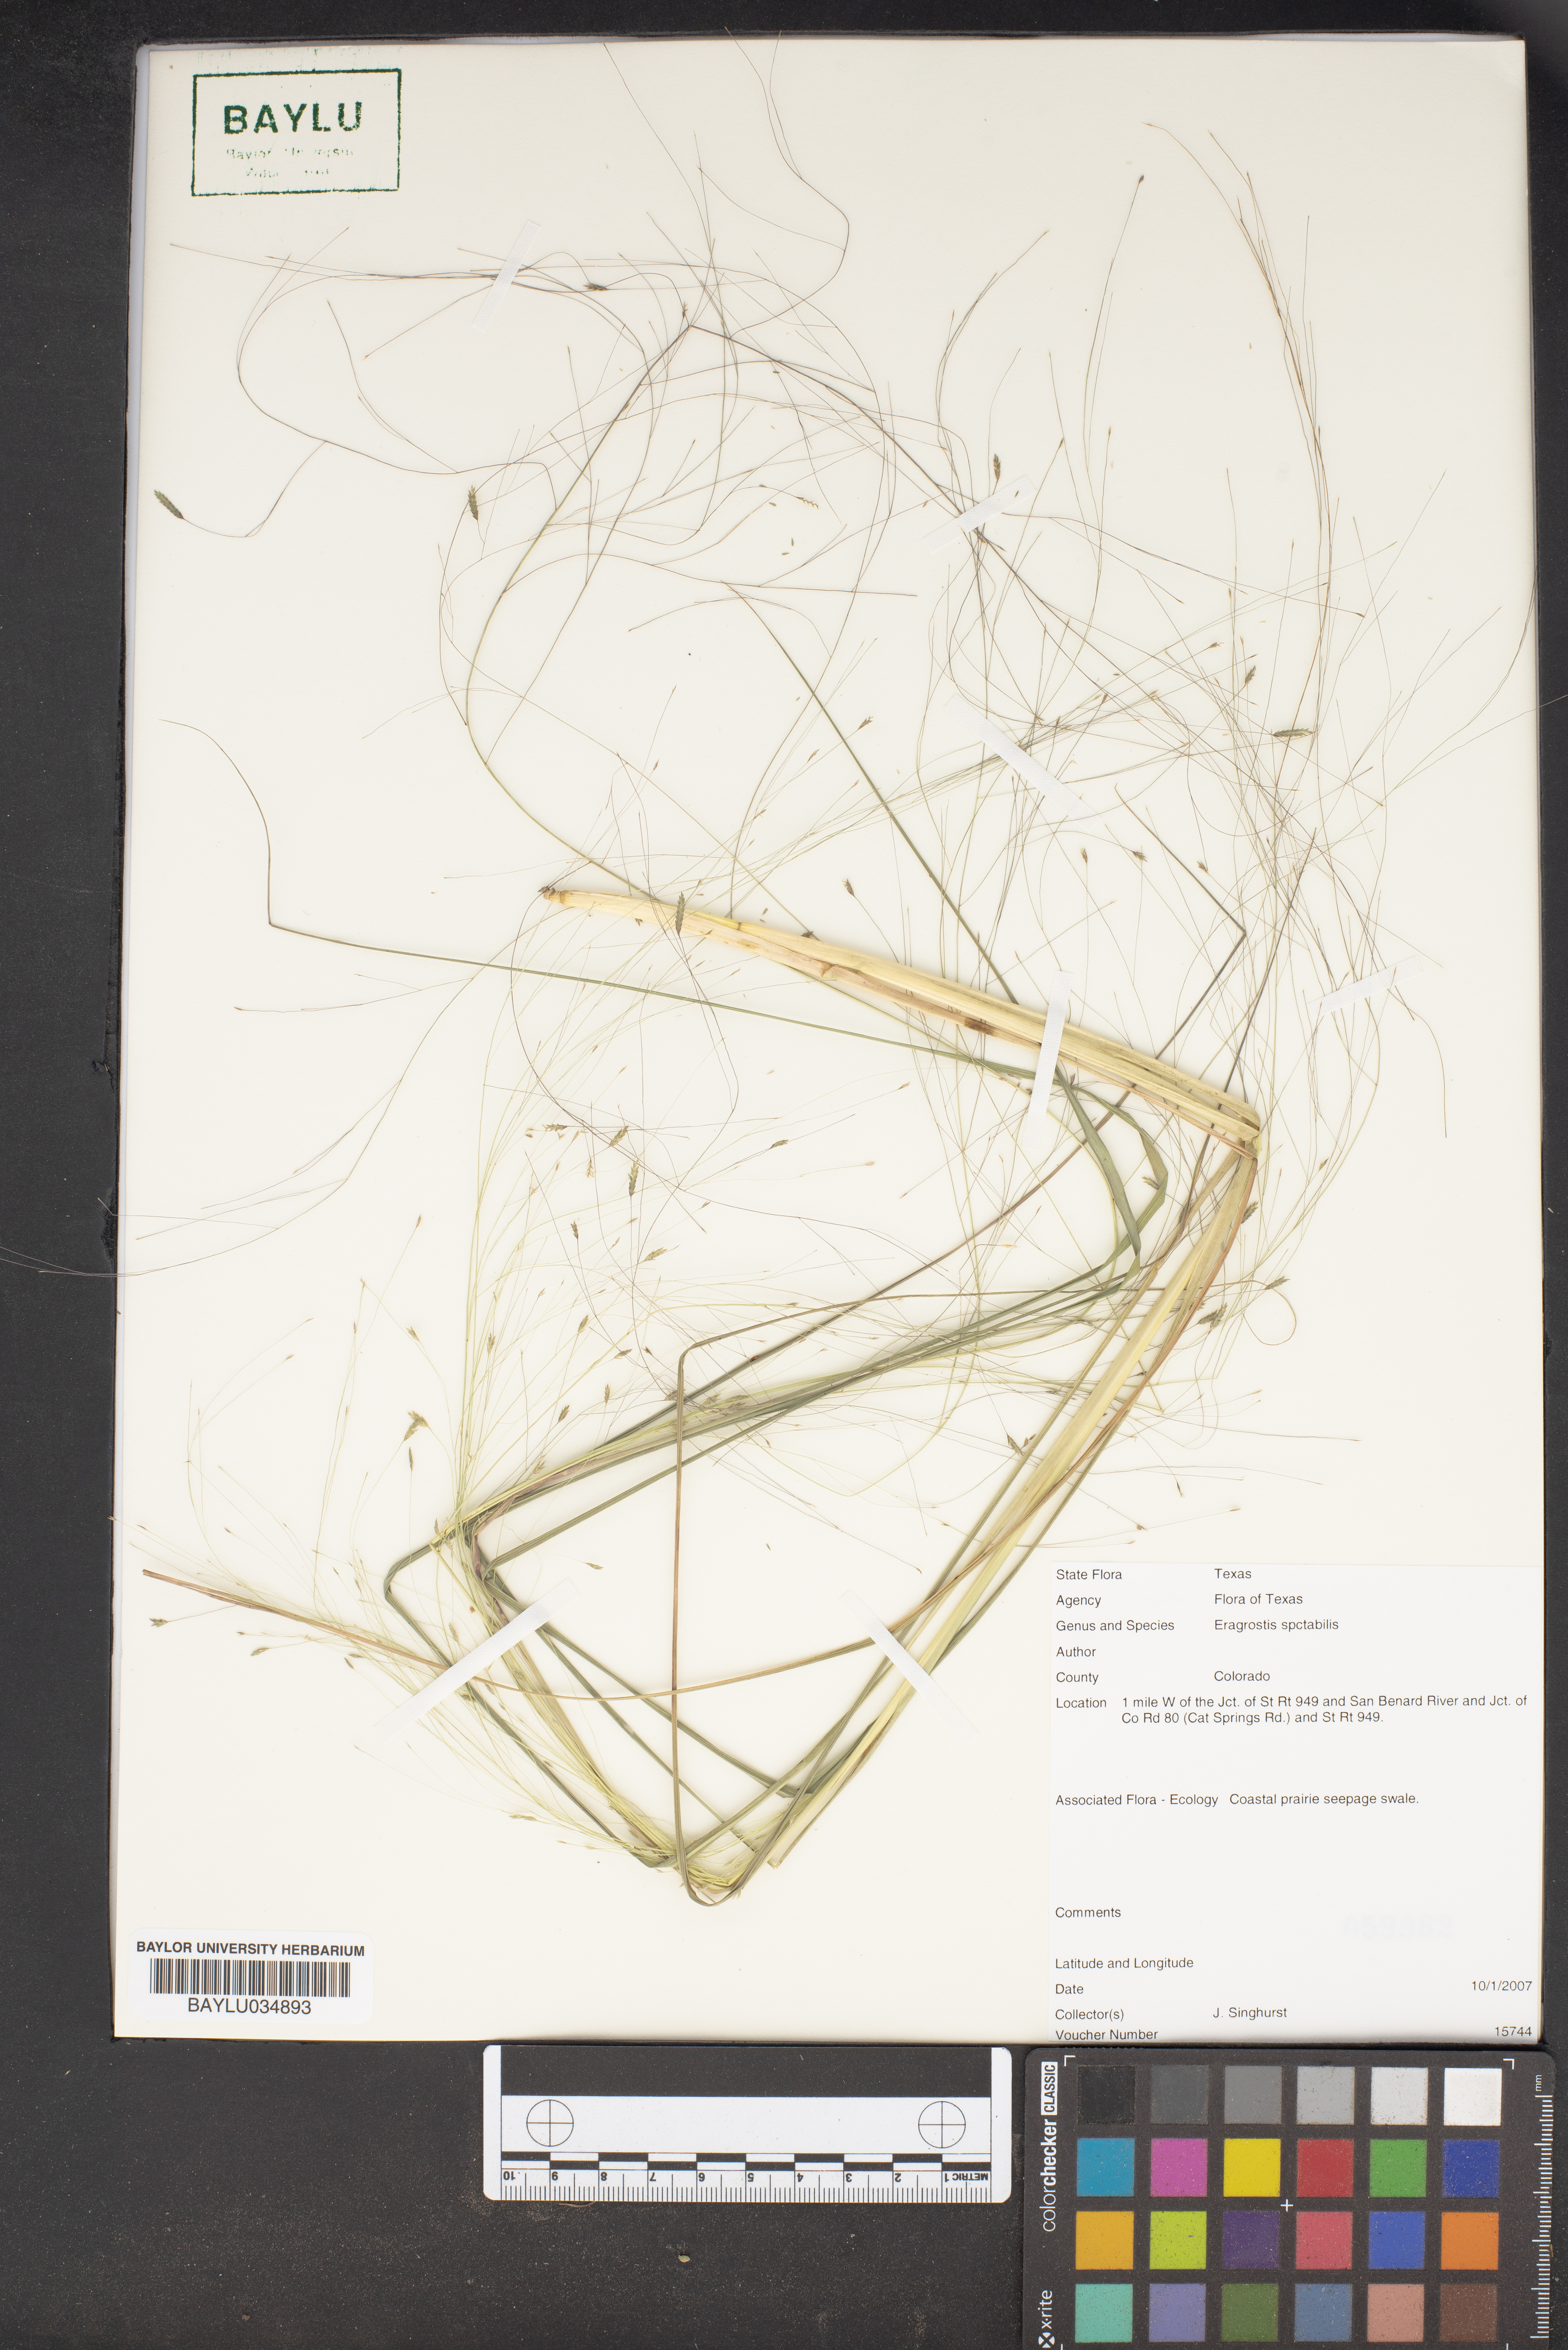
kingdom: Plantae
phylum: Tracheophyta
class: Liliopsida
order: Poales
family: Poaceae
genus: Eragrostis
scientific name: Eragrostis spectabilis
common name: Petticoat-climber
